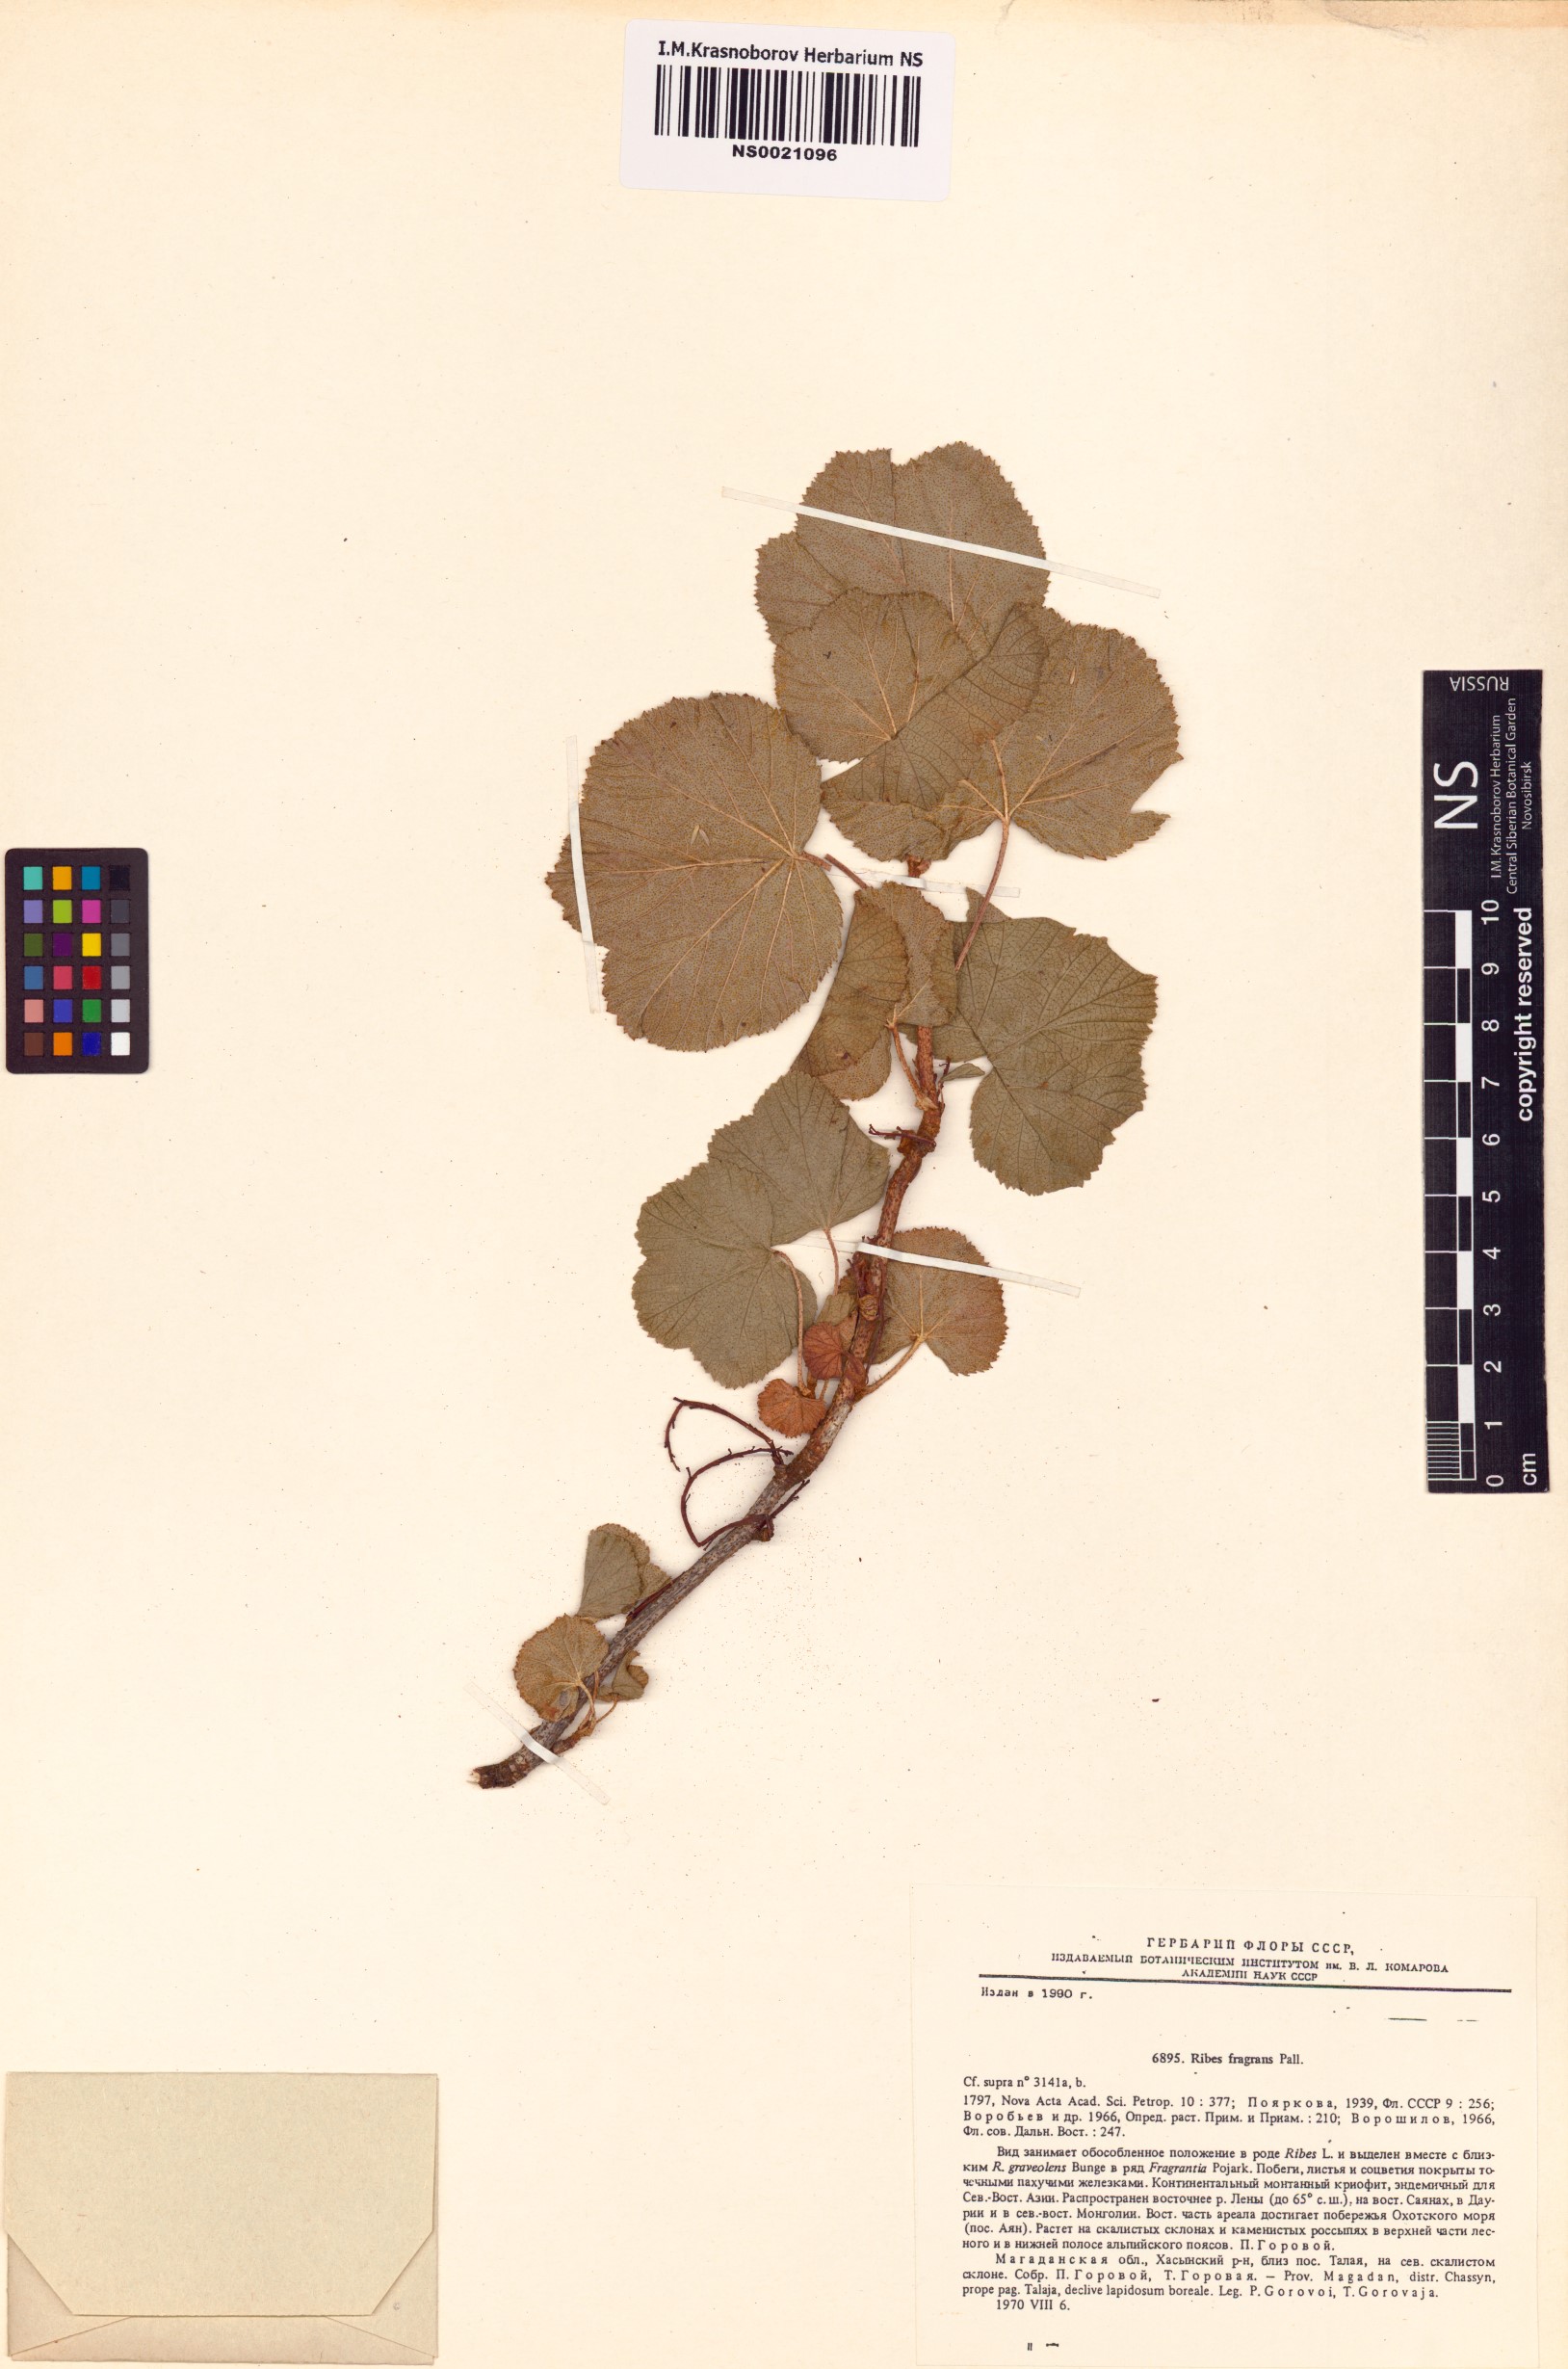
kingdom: Plantae
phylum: Tracheophyta
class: Magnoliopsida
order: Saxifragales
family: Grossulariaceae
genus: Ribes
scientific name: Ribes fragrans
